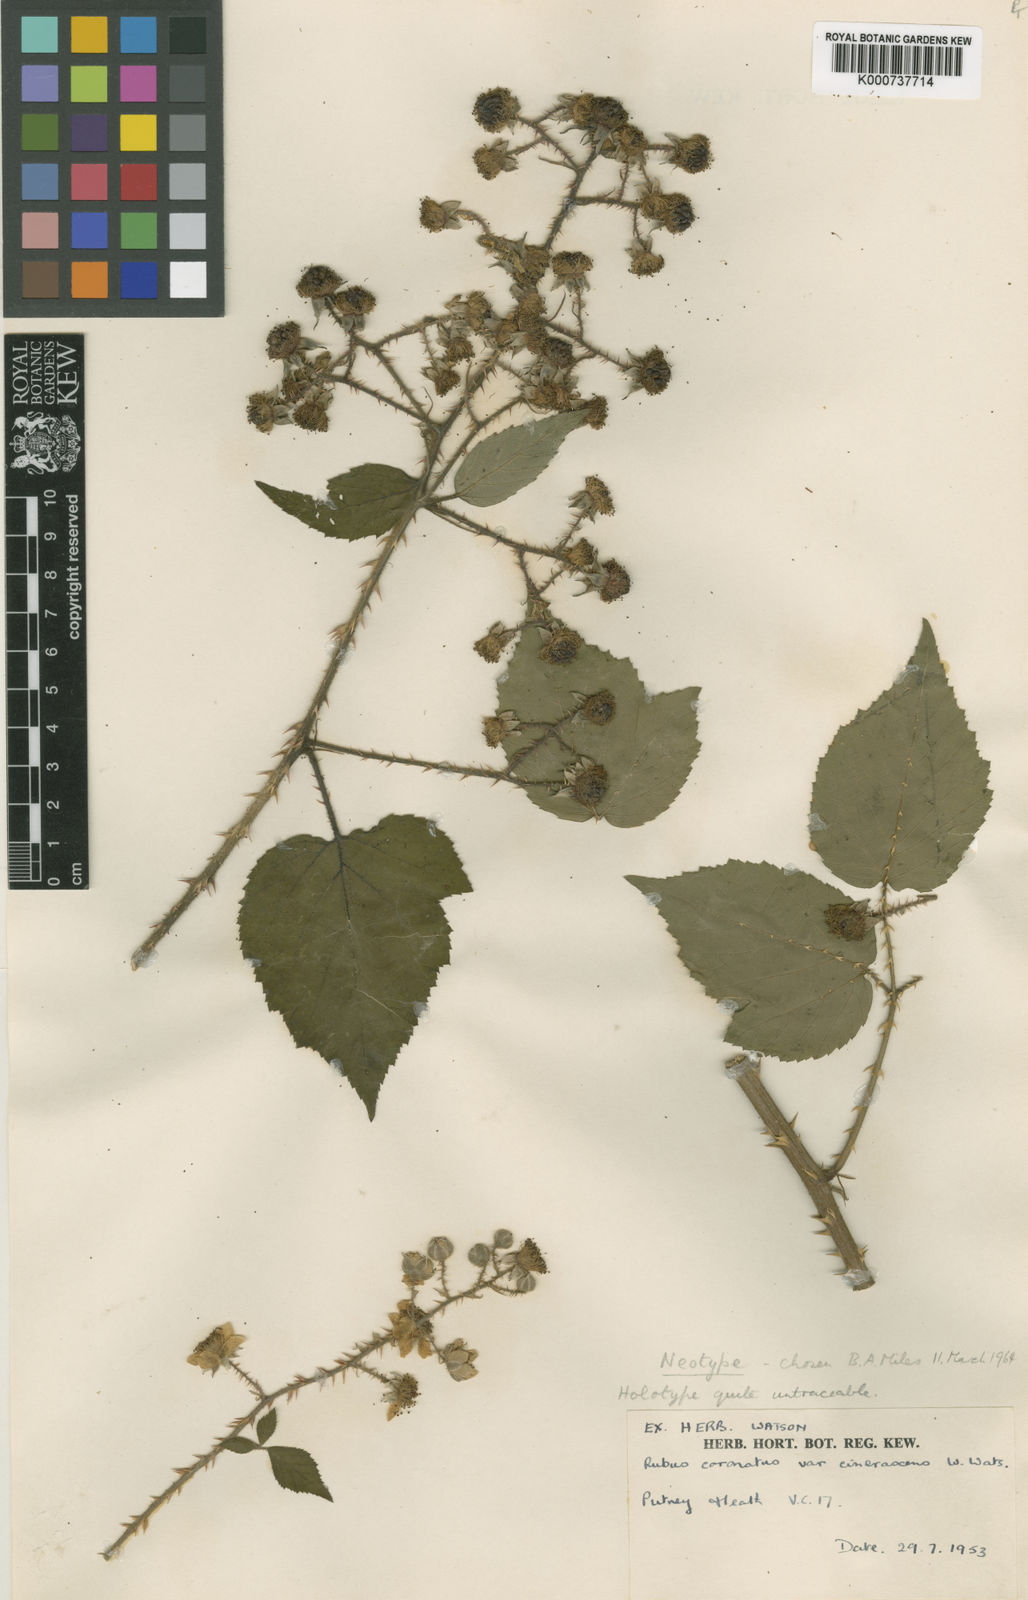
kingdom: Plantae
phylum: Tracheophyta
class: Magnoliopsida
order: Rosales
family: Rosaceae
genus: Rubus
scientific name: Rubus
